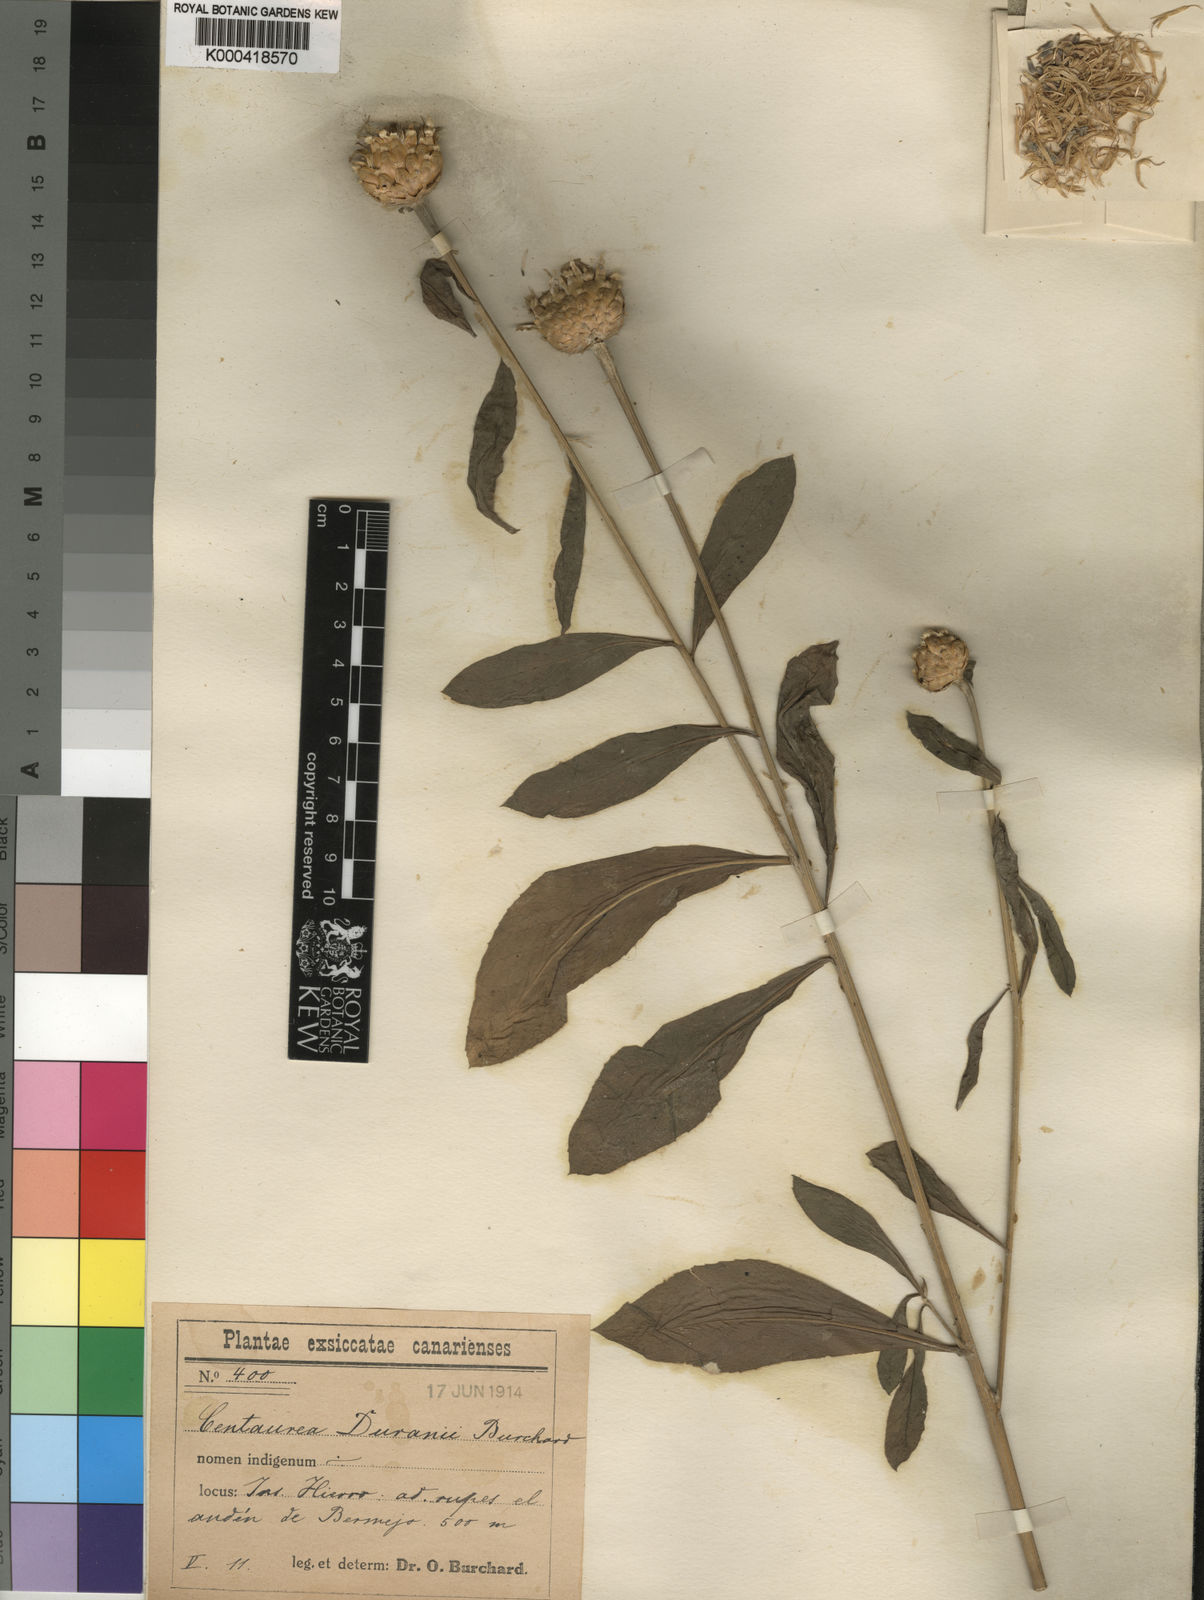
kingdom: Plantae
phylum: Tracheophyta
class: Magnoliopsida
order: Asterales
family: Asteraceae
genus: Cheirolophus
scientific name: Cheirolophus duranii
